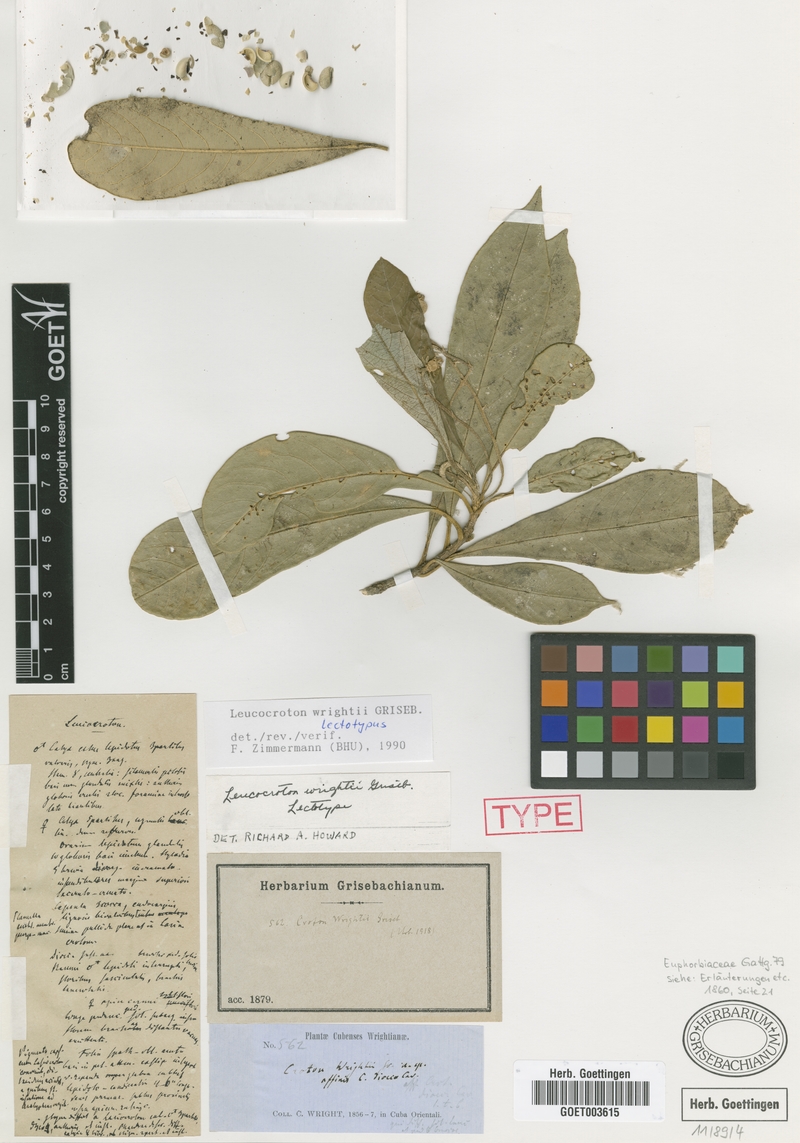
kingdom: Plantae
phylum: Tracheophyta
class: Magnoliopsida
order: Malpighiales
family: Euphorbiaceae
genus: Leucocroton
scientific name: Leucocroton wrightii
